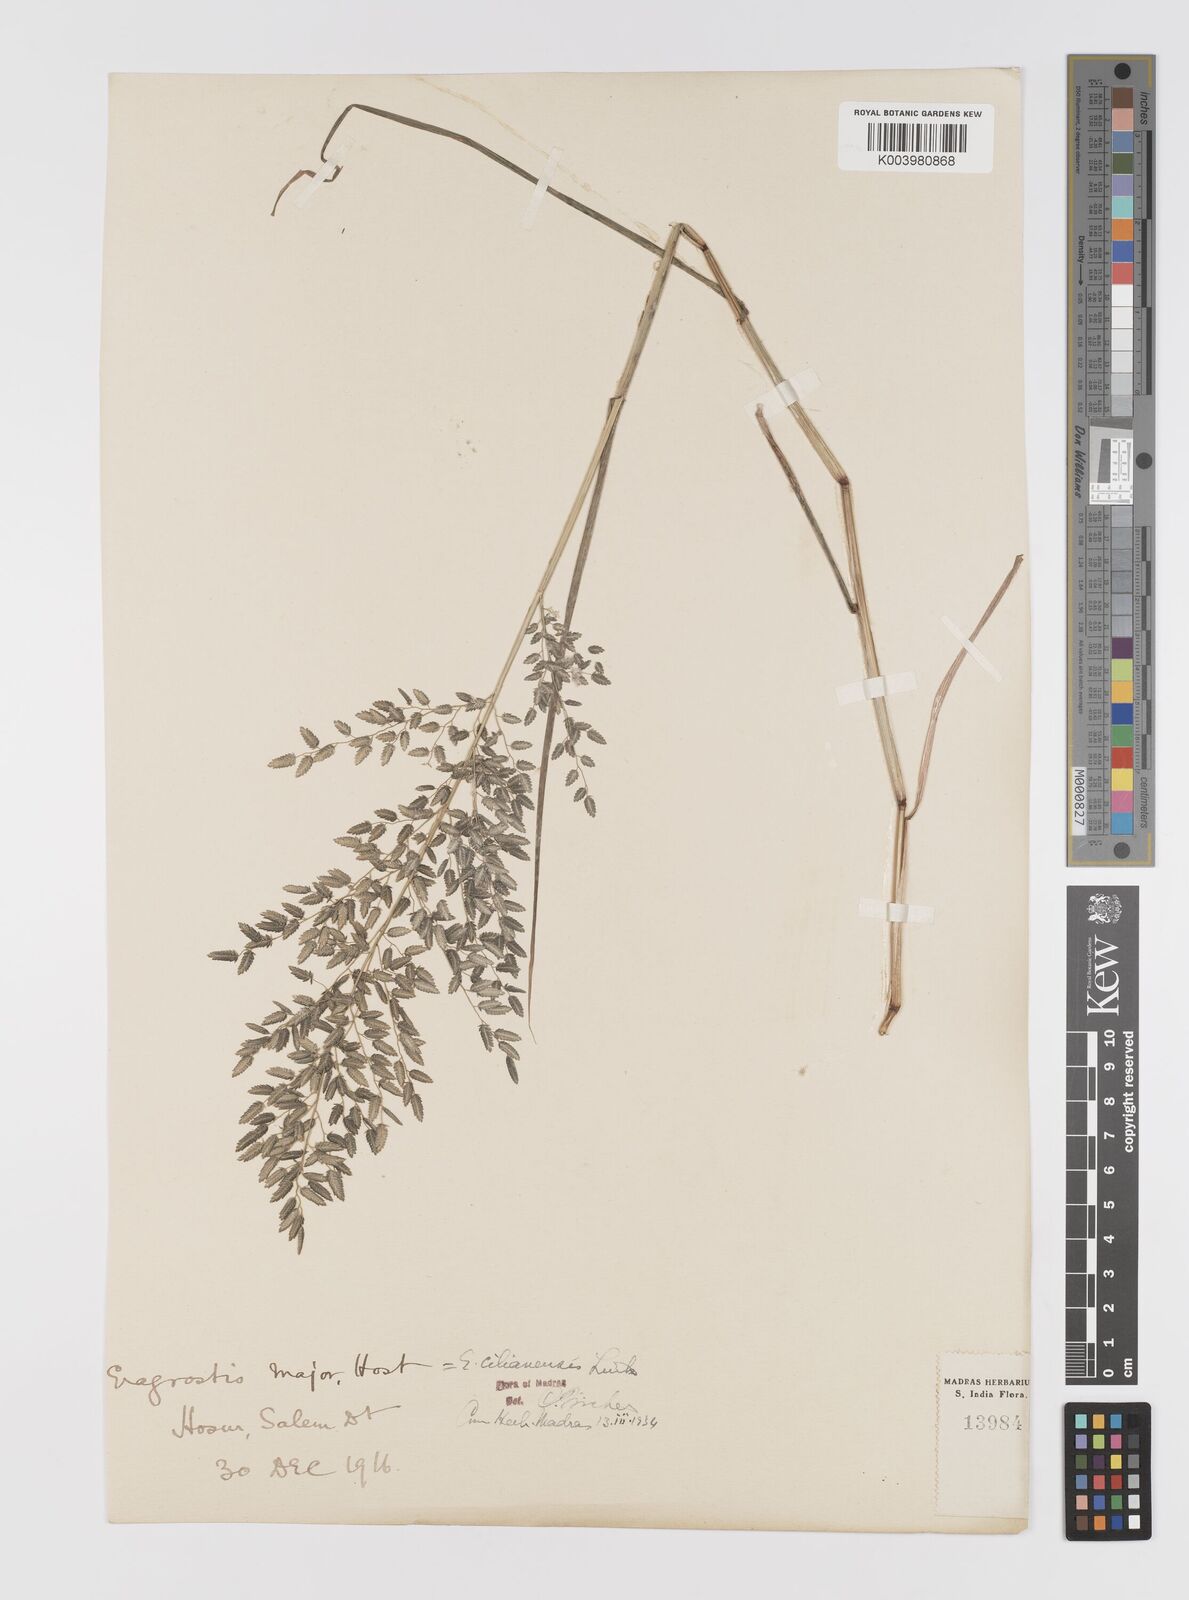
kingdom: Plantae
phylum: Tracheophyta
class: Liliopsida
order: Poales
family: Poaceae
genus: Eragrostis
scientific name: Eragrostis cilianensis
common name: Stinkgrass
